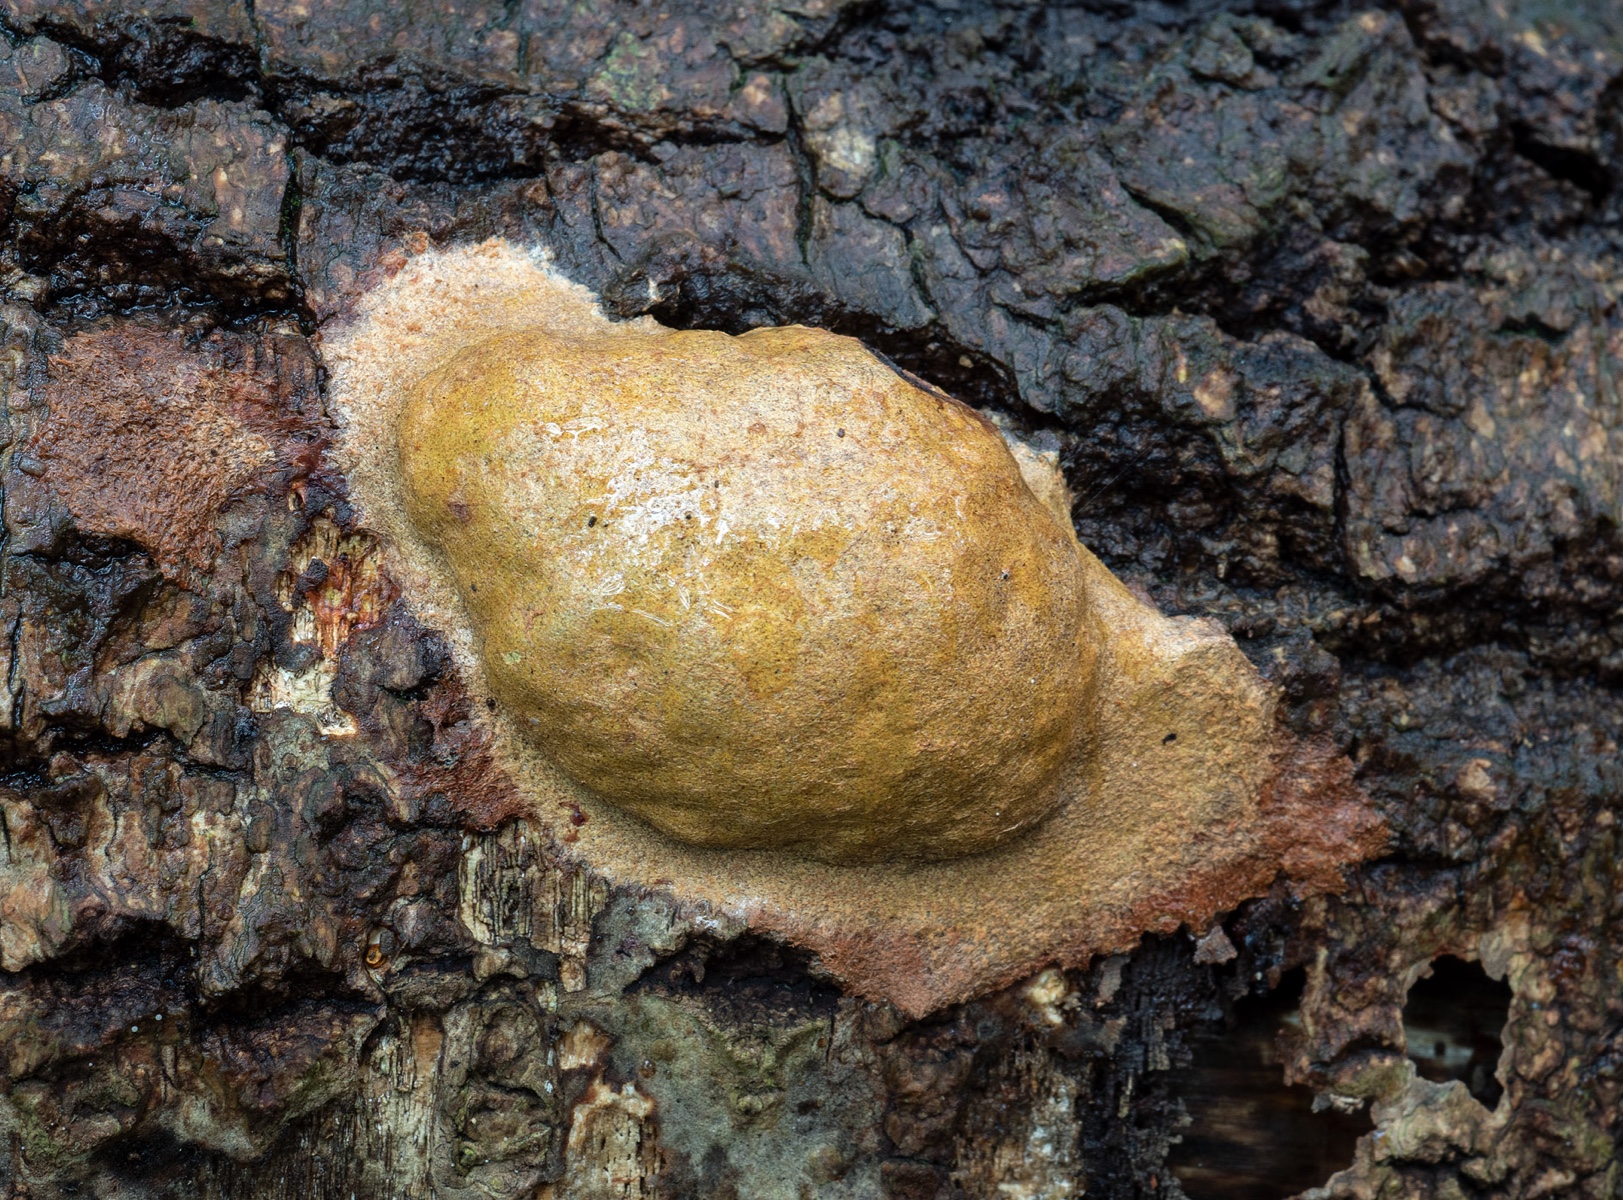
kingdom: Protozoa
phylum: Mycetozoa
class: Myxomycetes
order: Physarales
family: Physaraceae
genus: Fuligo
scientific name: Fuligo leviderma
